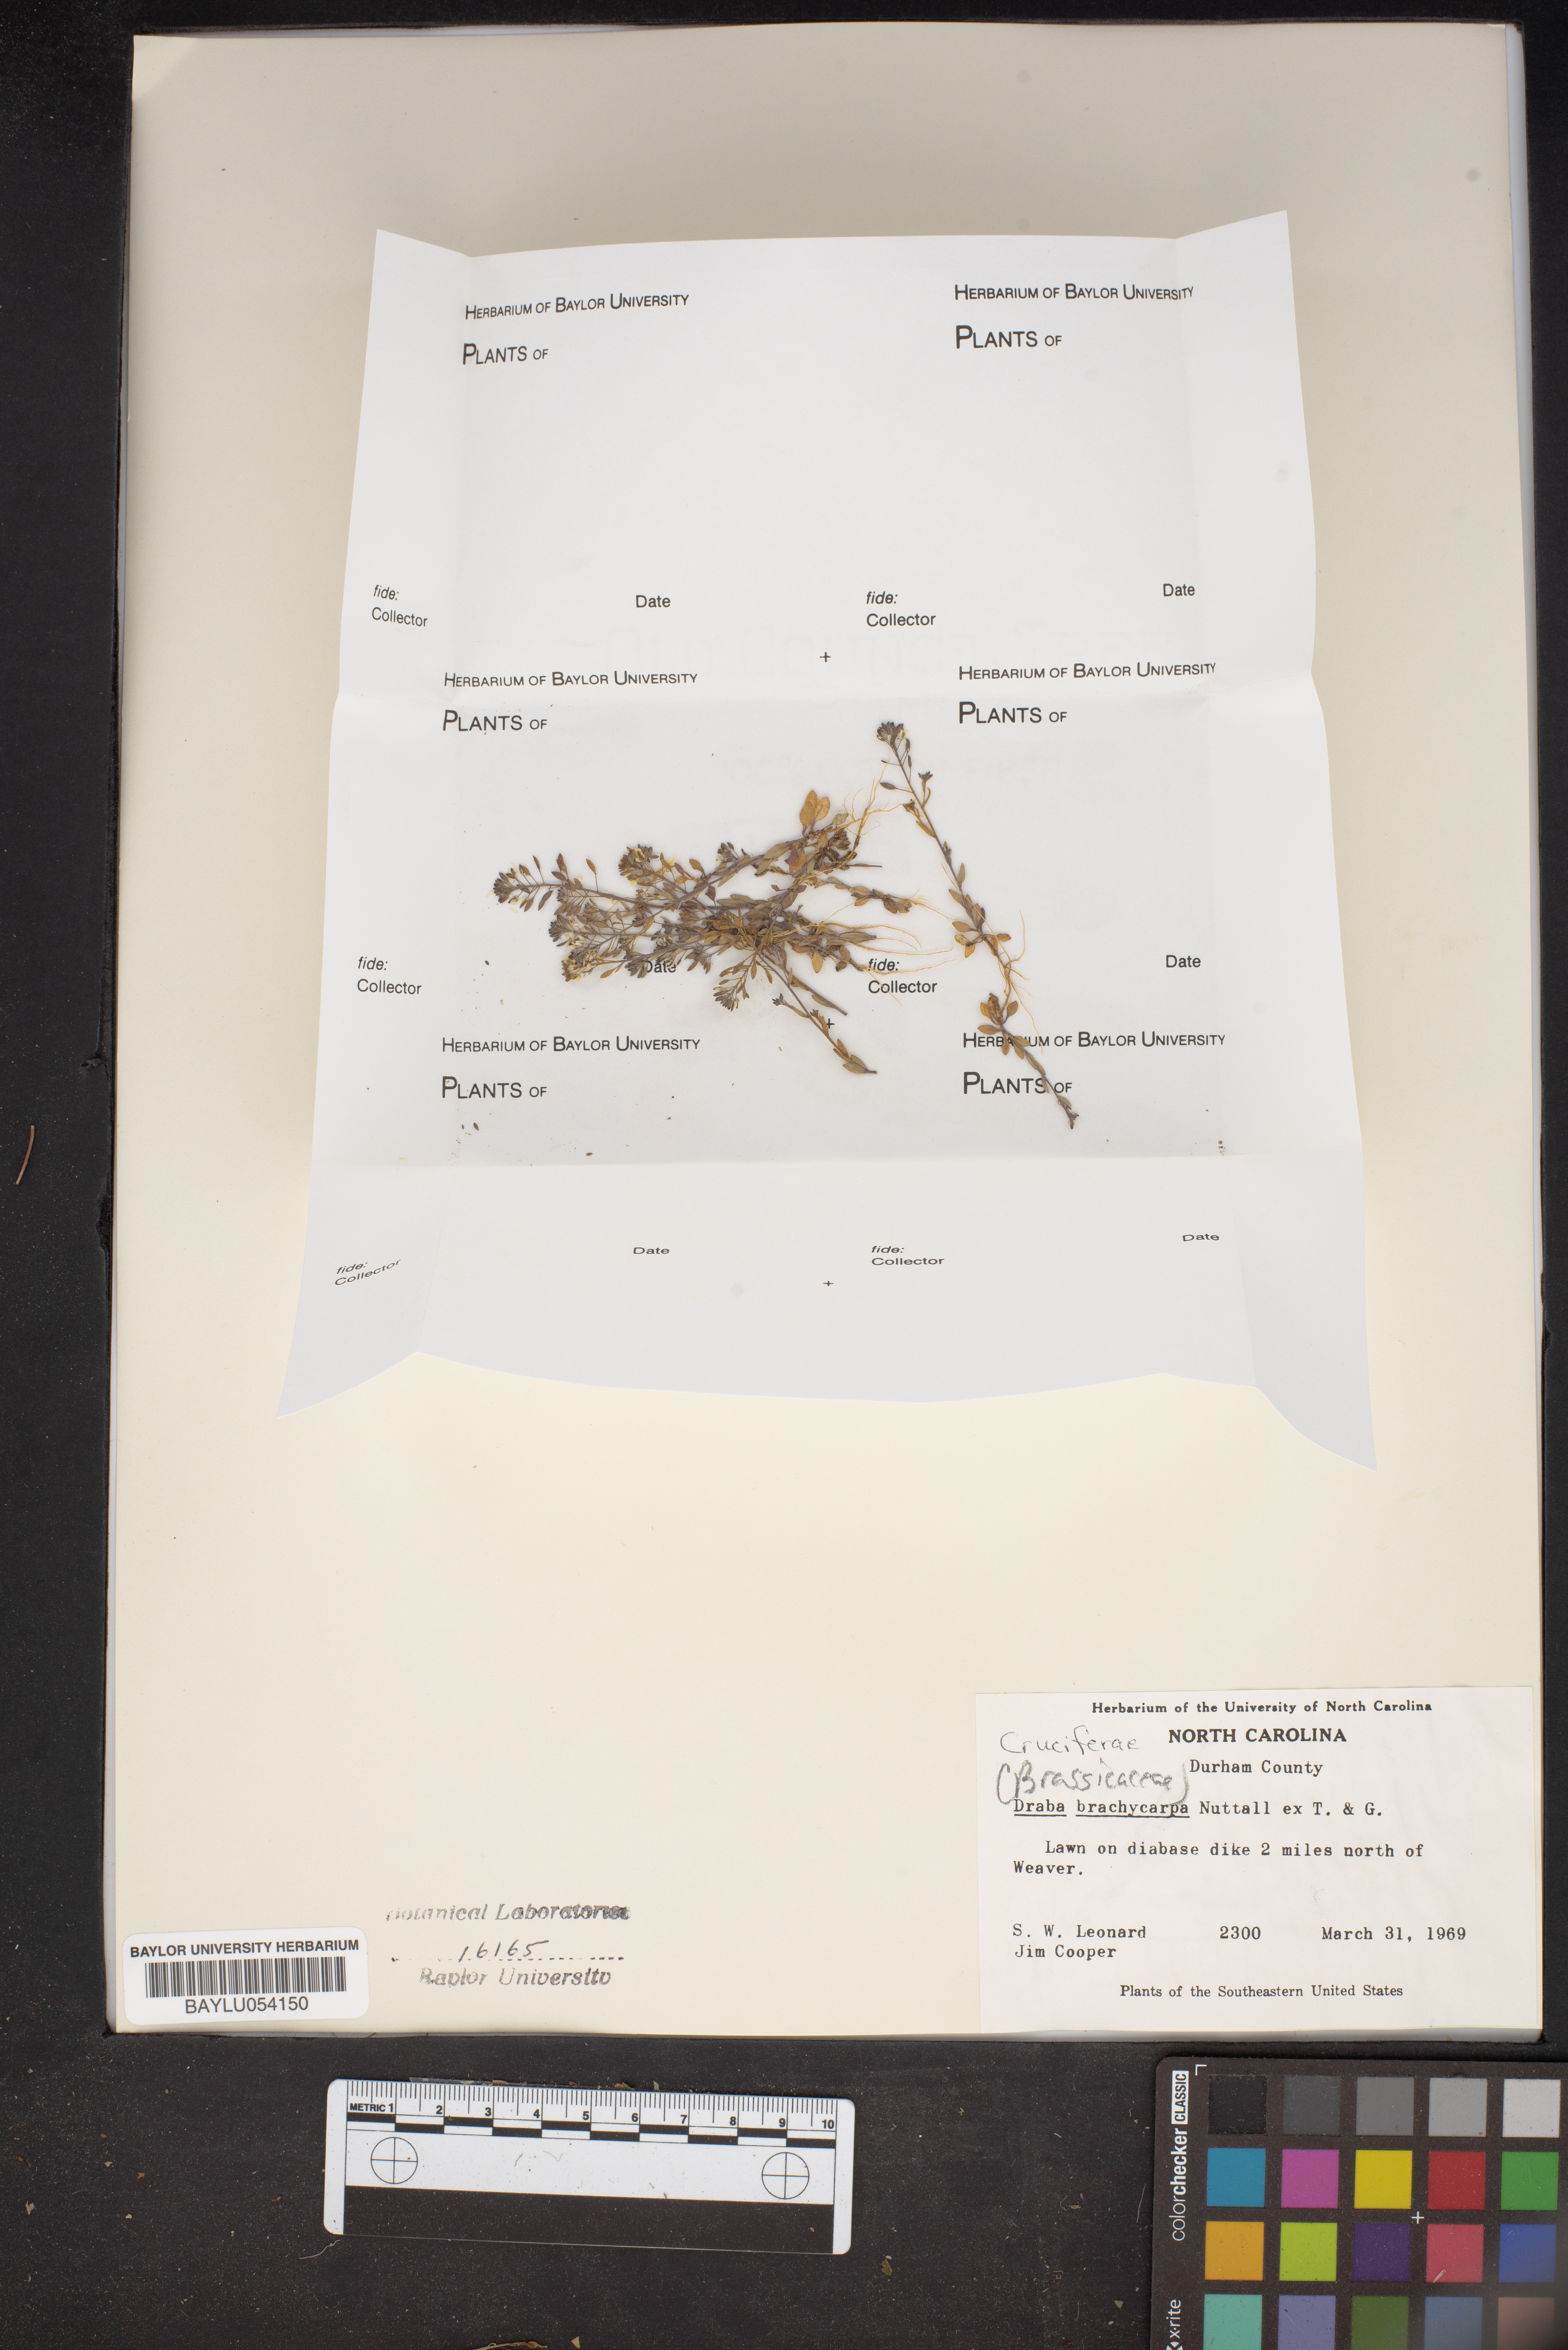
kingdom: Plantae
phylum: Tracheophyta
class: Magnoliopsida
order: Brassicales
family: Brassicaceae
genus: Abdra
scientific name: Abdra brachycarpa
